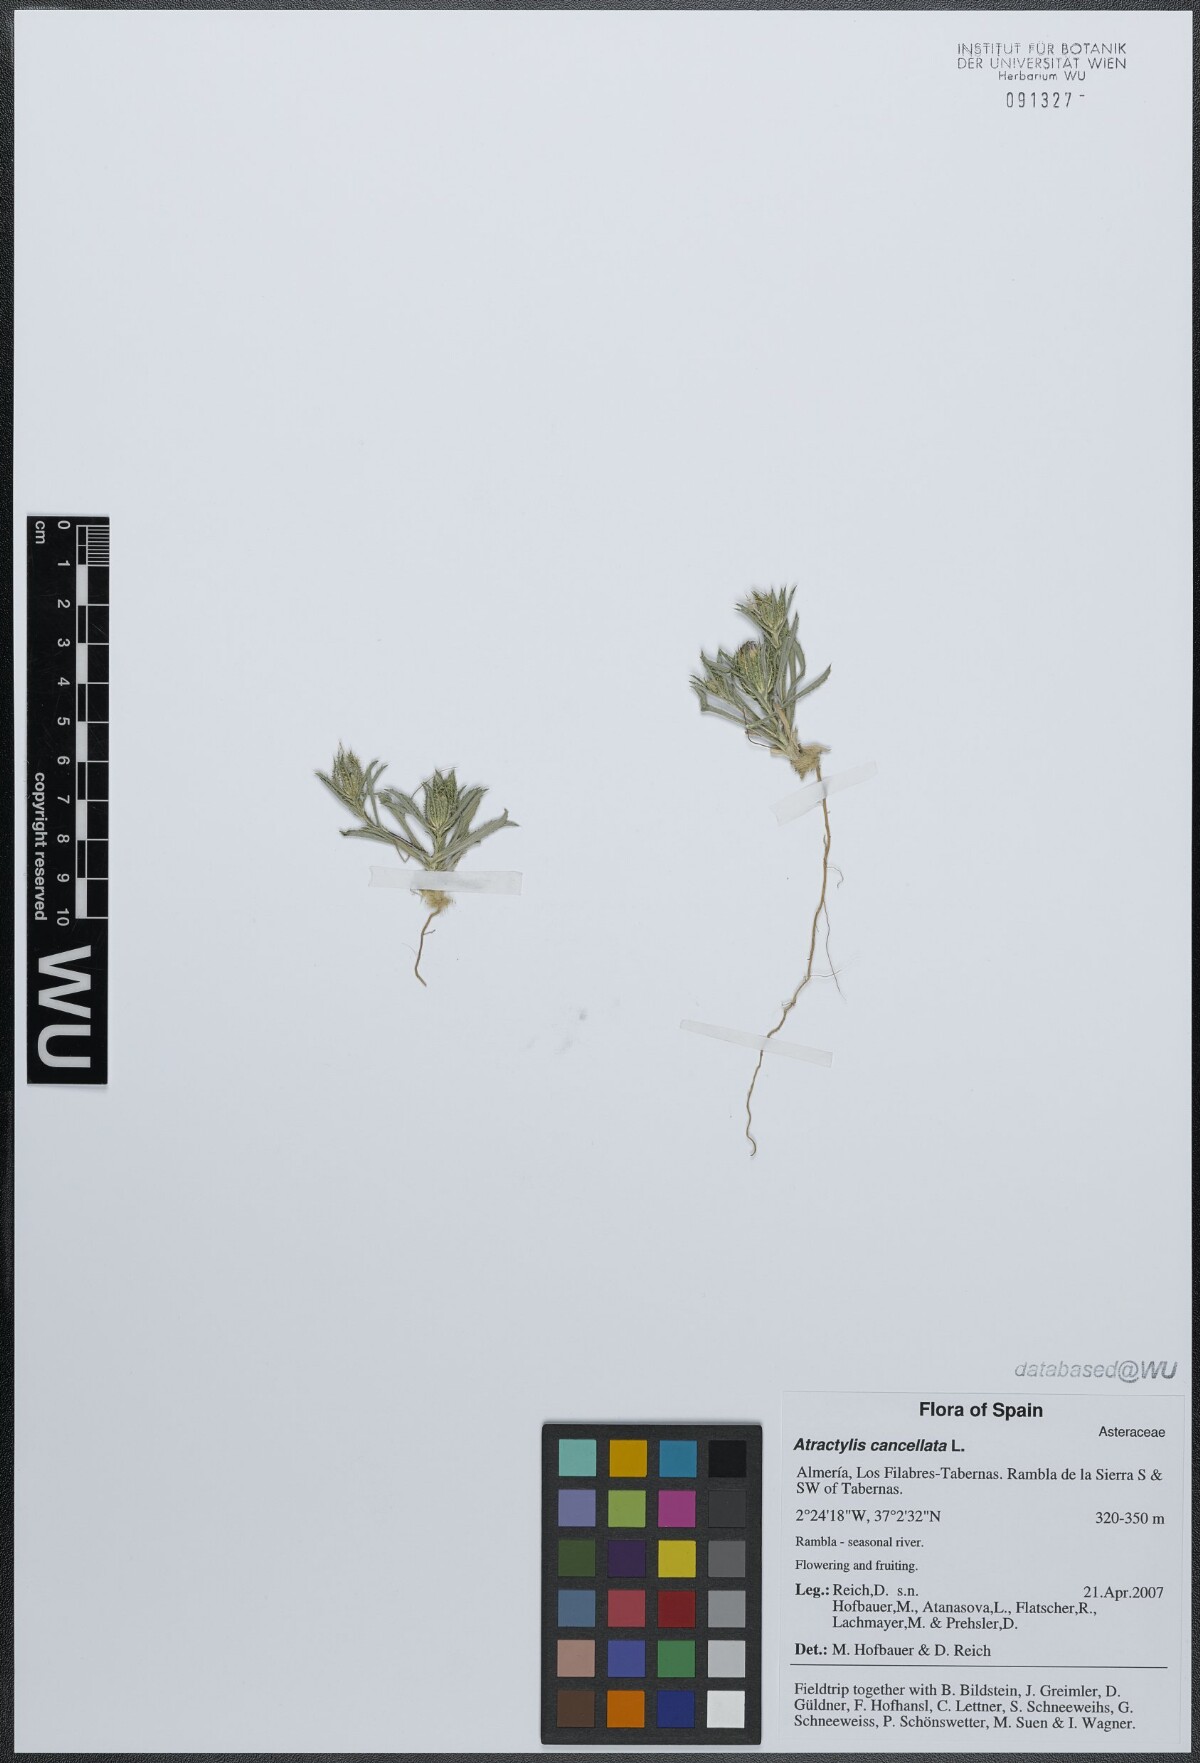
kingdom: Plantae
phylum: Tracheophyta
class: Magnoliopsida
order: Asterales
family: Asteraceae
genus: Atractylis
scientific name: Atractylis cancellata
